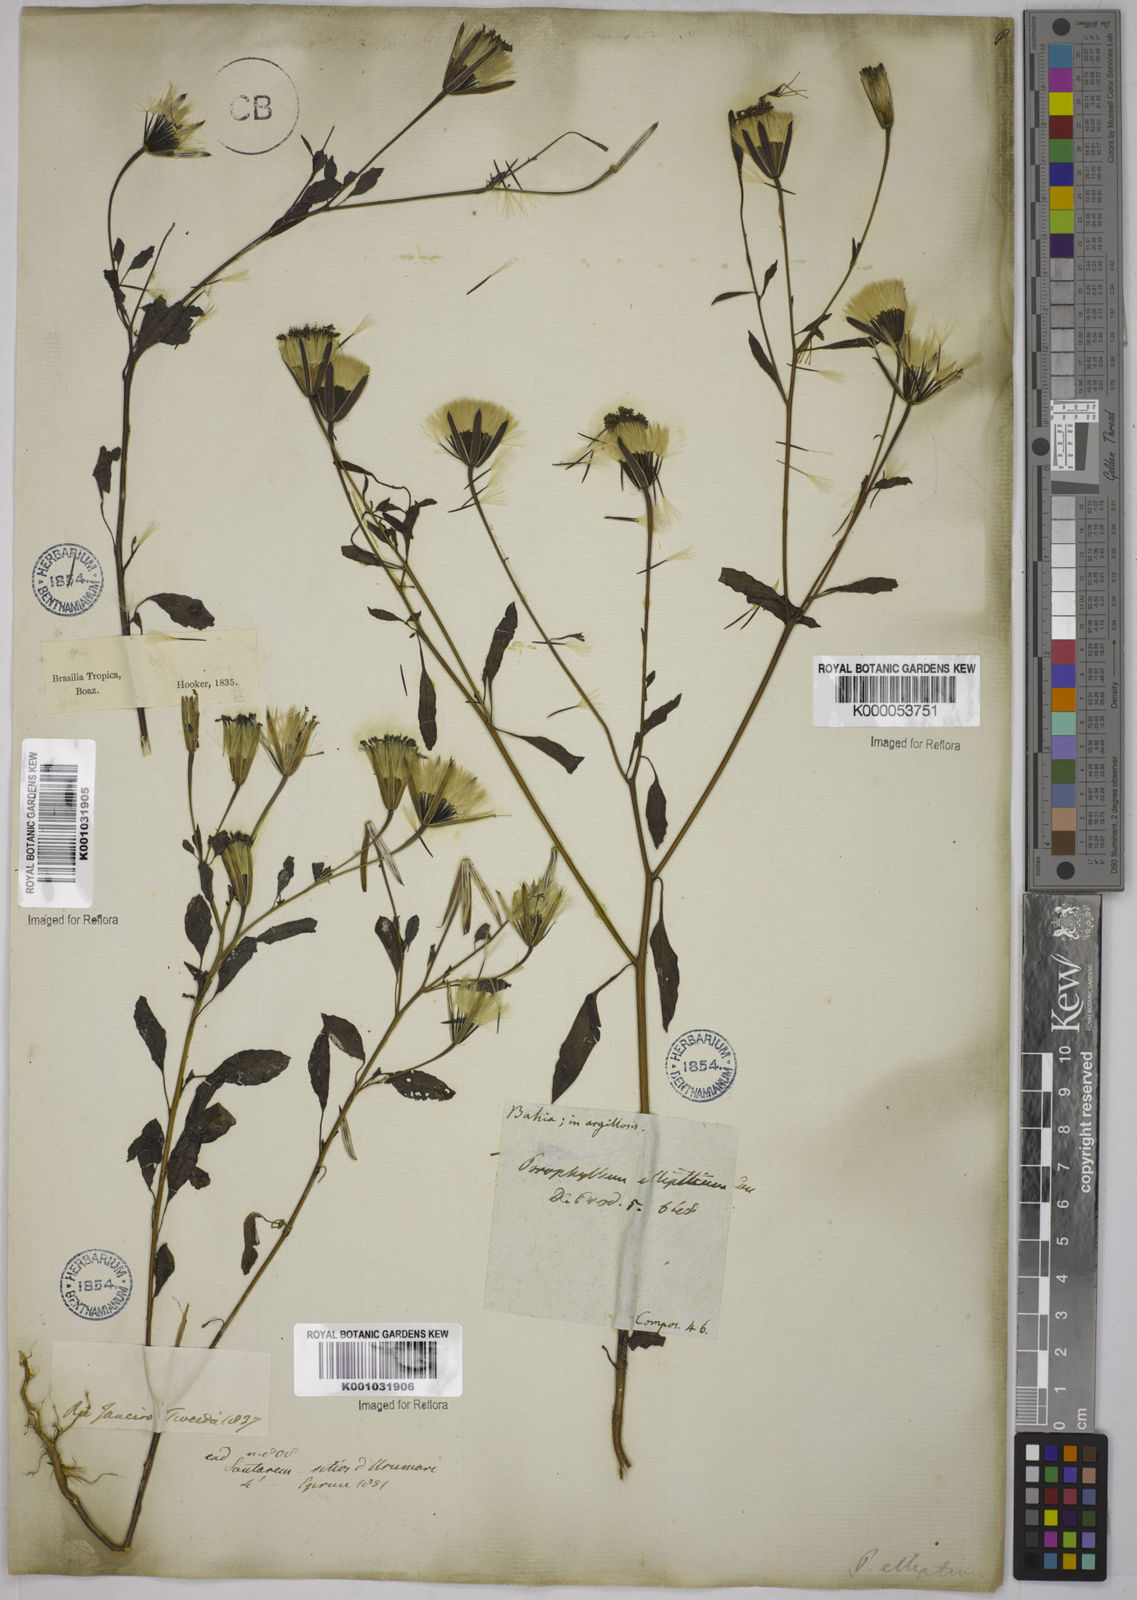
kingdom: Plantae
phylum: Tracheophyta
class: Magnoliopsida
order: Asterales
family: Asteraceae
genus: Porophyllum
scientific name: Porophyllum ruderale
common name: Yerba porosa
